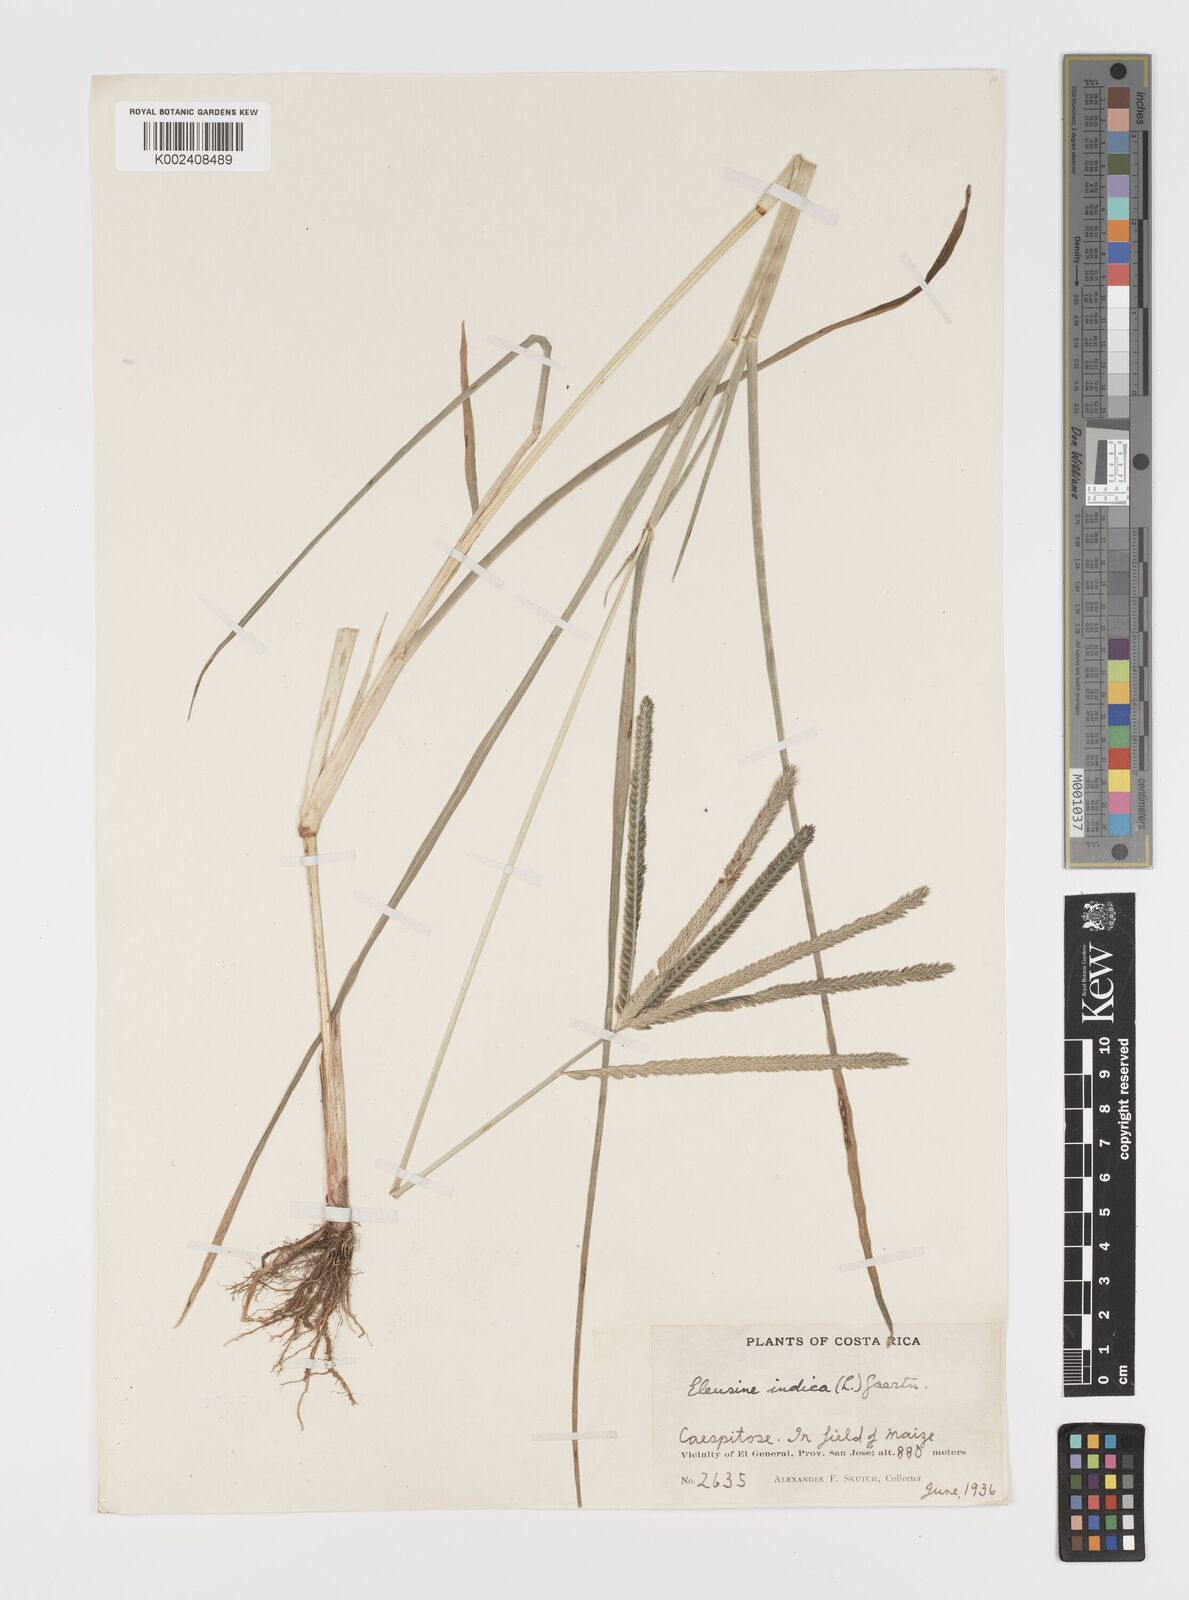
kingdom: Plantae
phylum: Tracheophyta
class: Liliopsida
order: Poales
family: Poaceae
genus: Eleusine
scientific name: Eleusine indica
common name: Yard-grass
